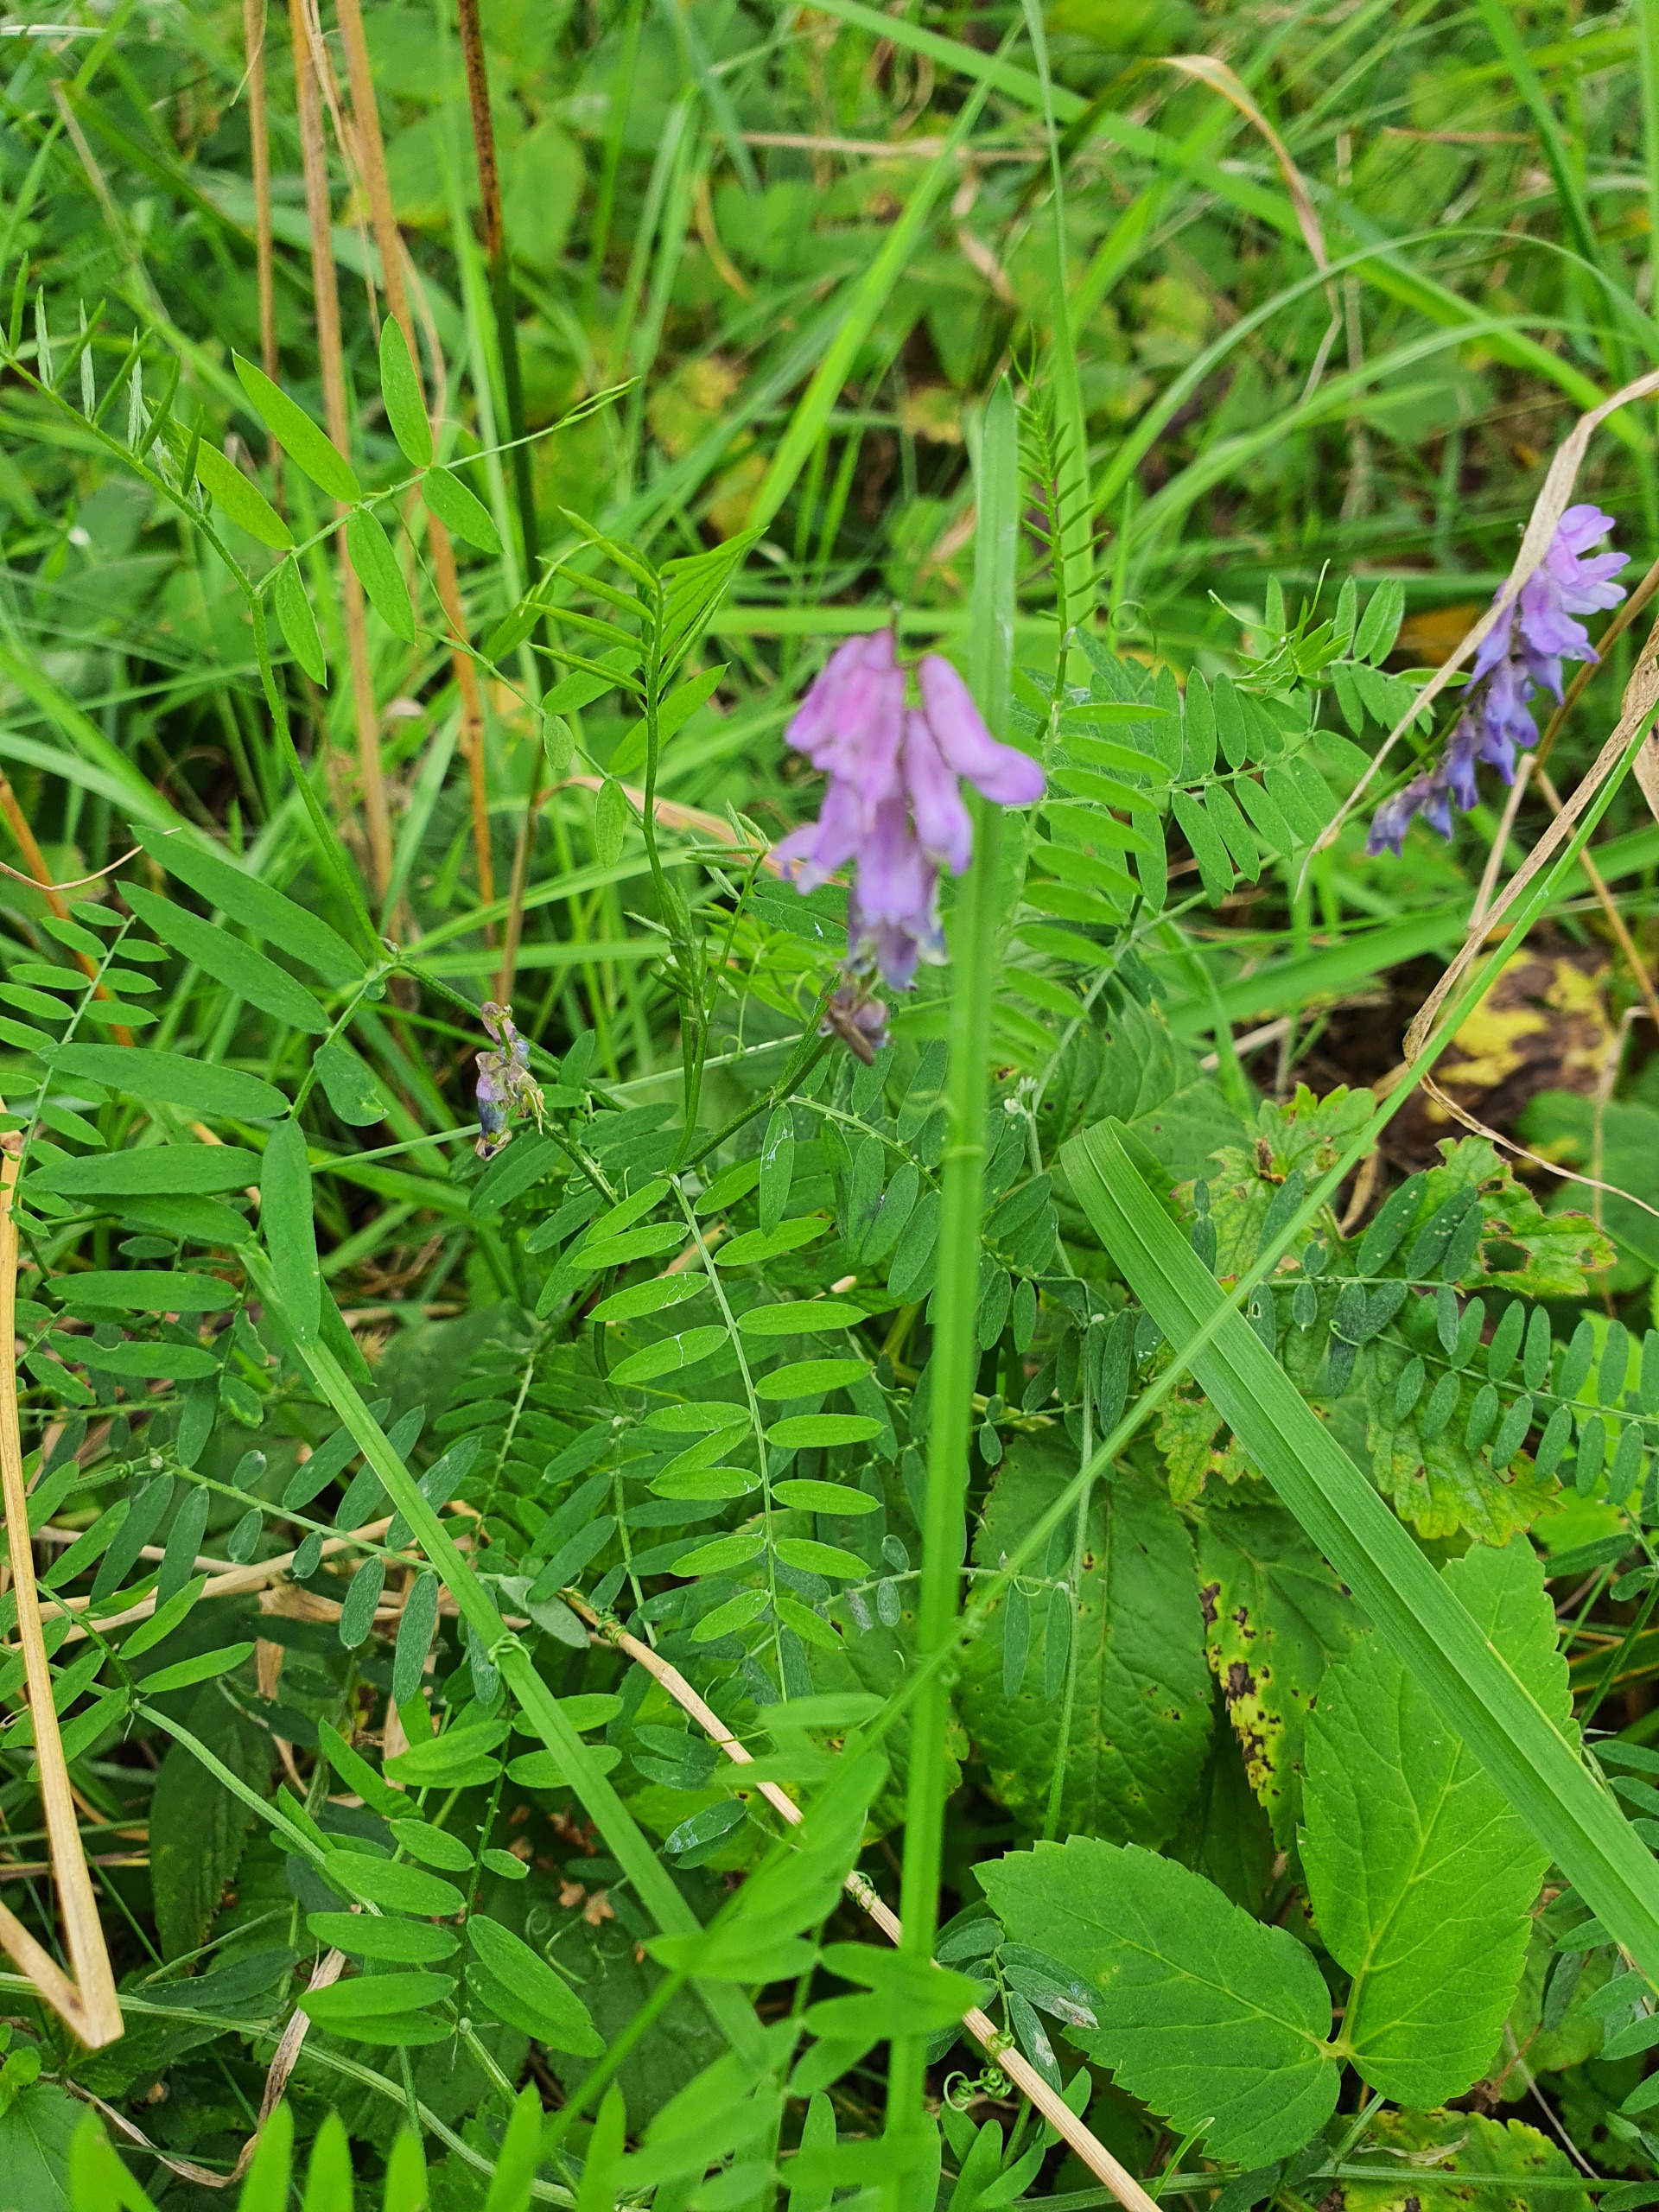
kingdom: Plantae
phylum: Tracheophyta
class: Magnoliopsida
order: Fabales
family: Fabaceae
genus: Vicia
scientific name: Vicia cracca
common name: Muse-vikke
